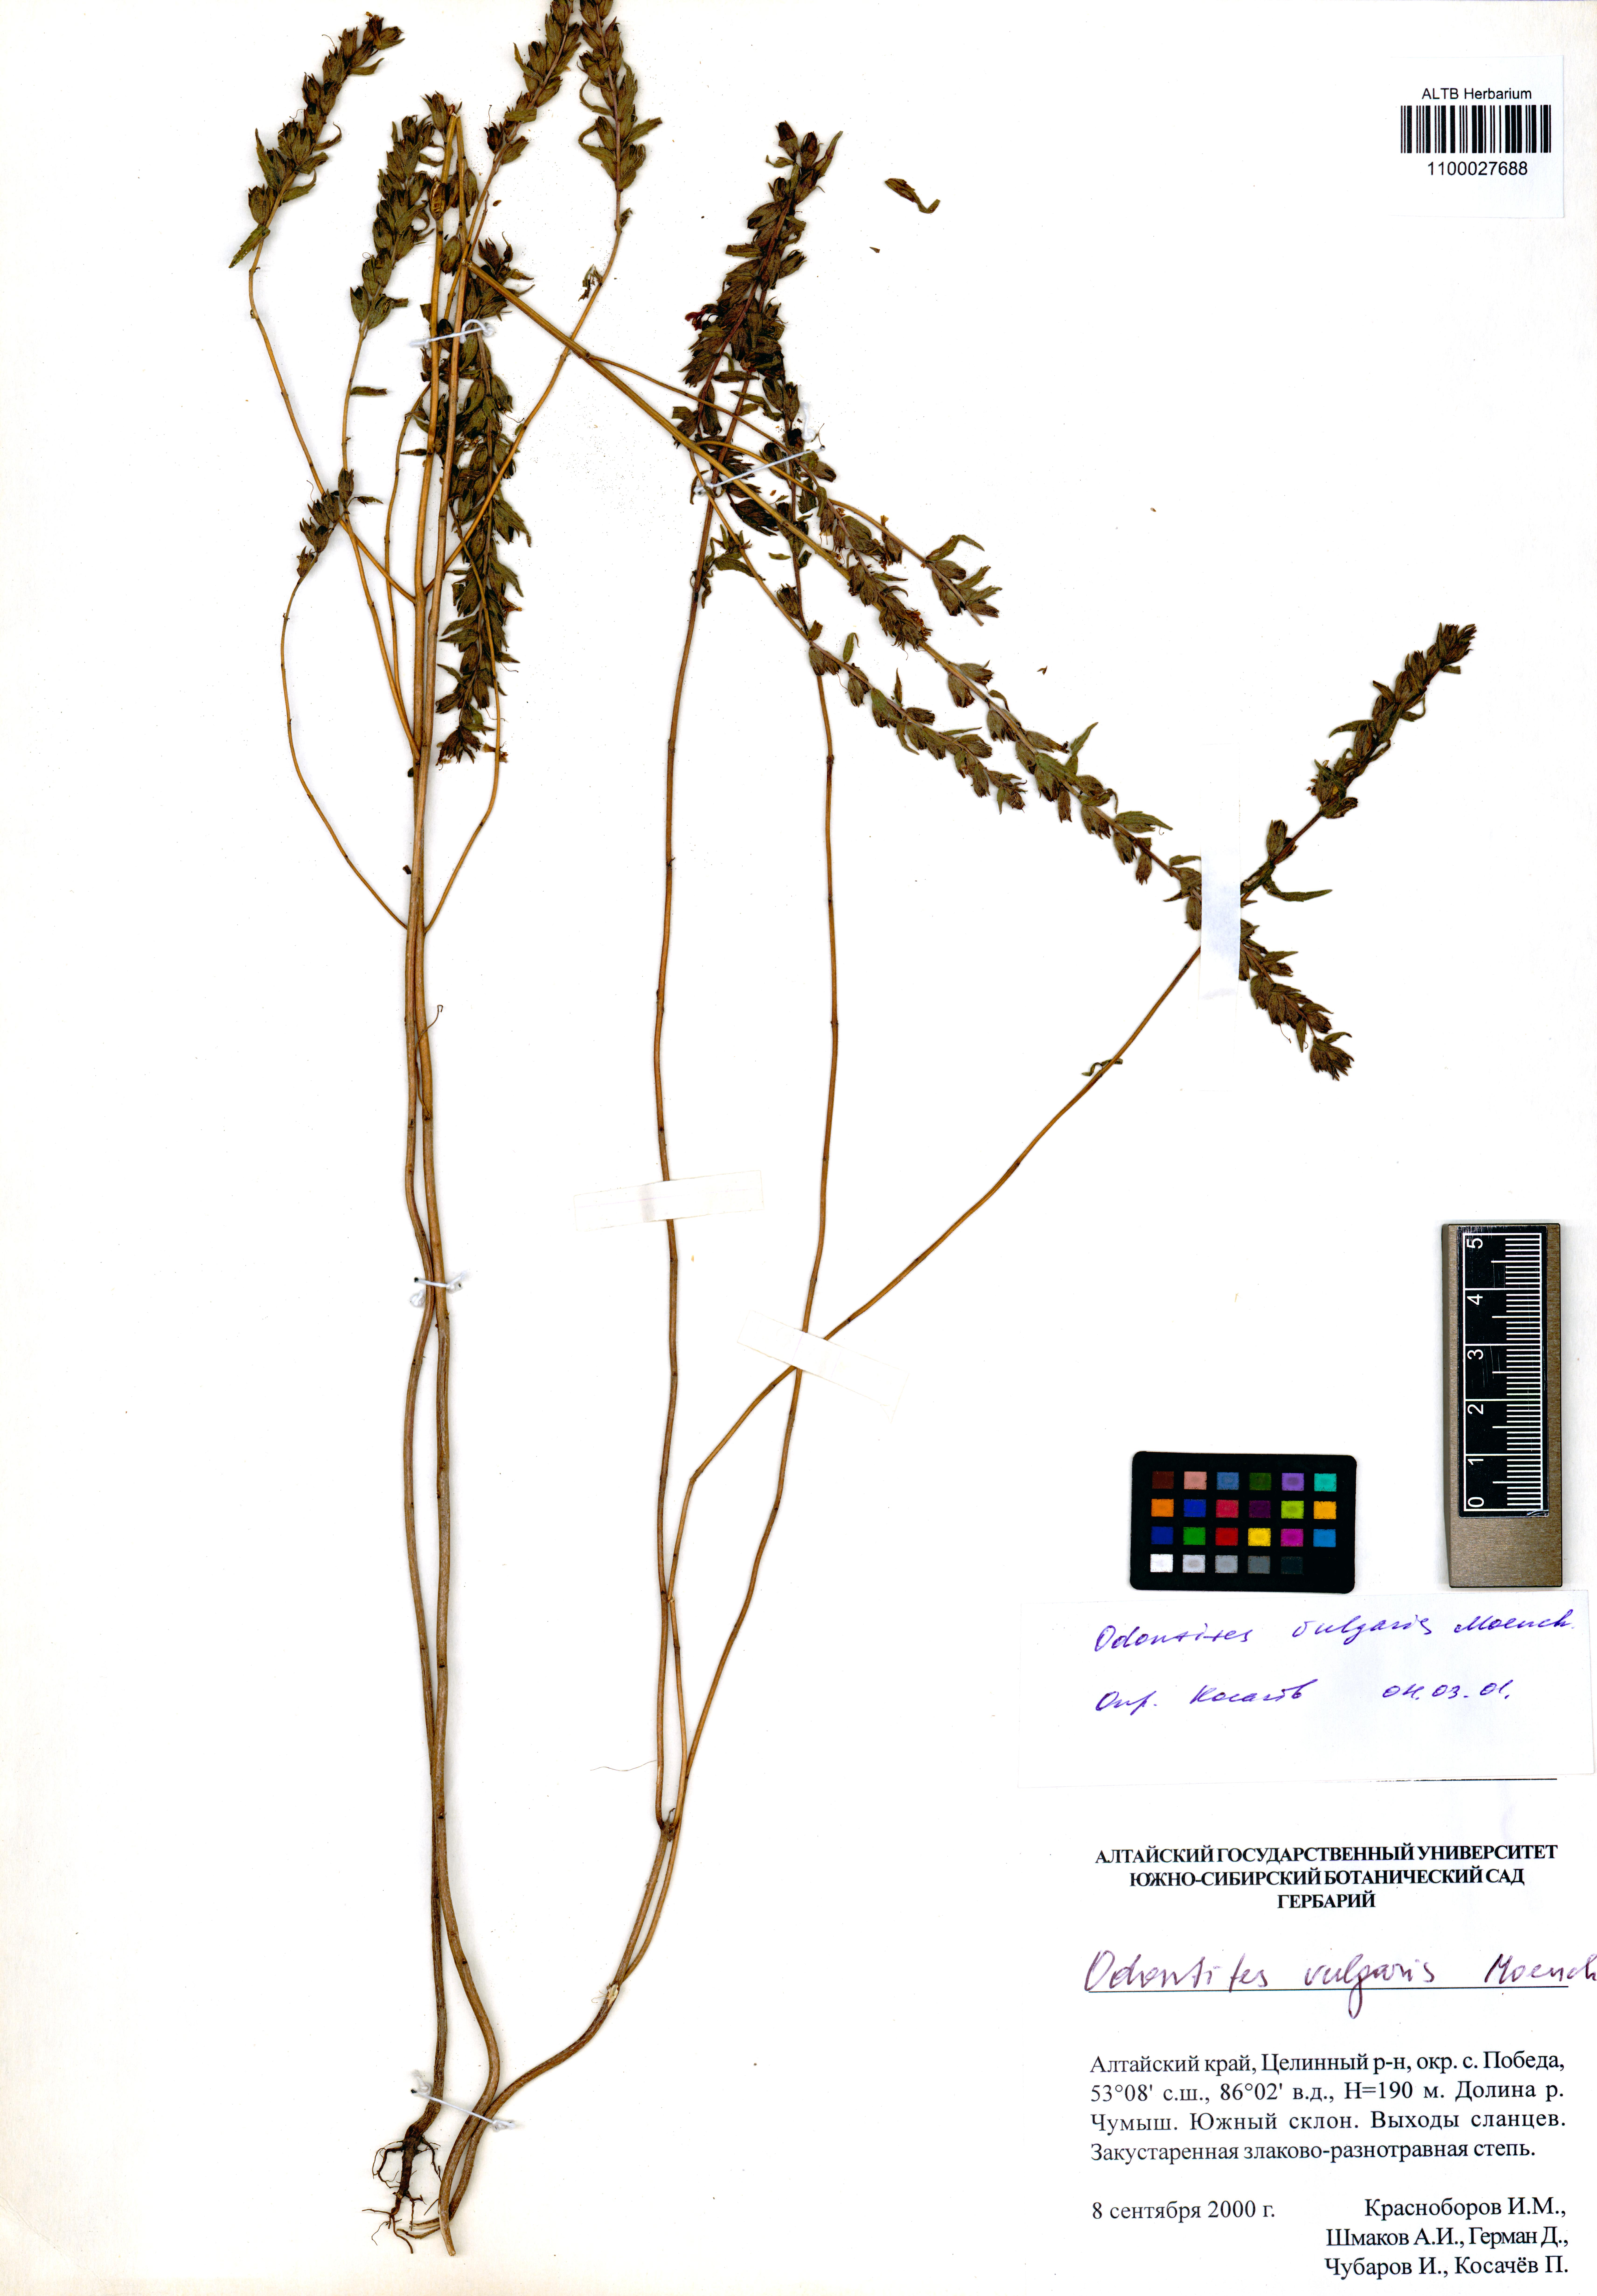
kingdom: Plantae
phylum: Tracheophyta
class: Magnoliopsida
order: Lamiales
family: Orobanchaceae
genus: Odontites
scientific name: Odontites vulgaris
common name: Broomrape
